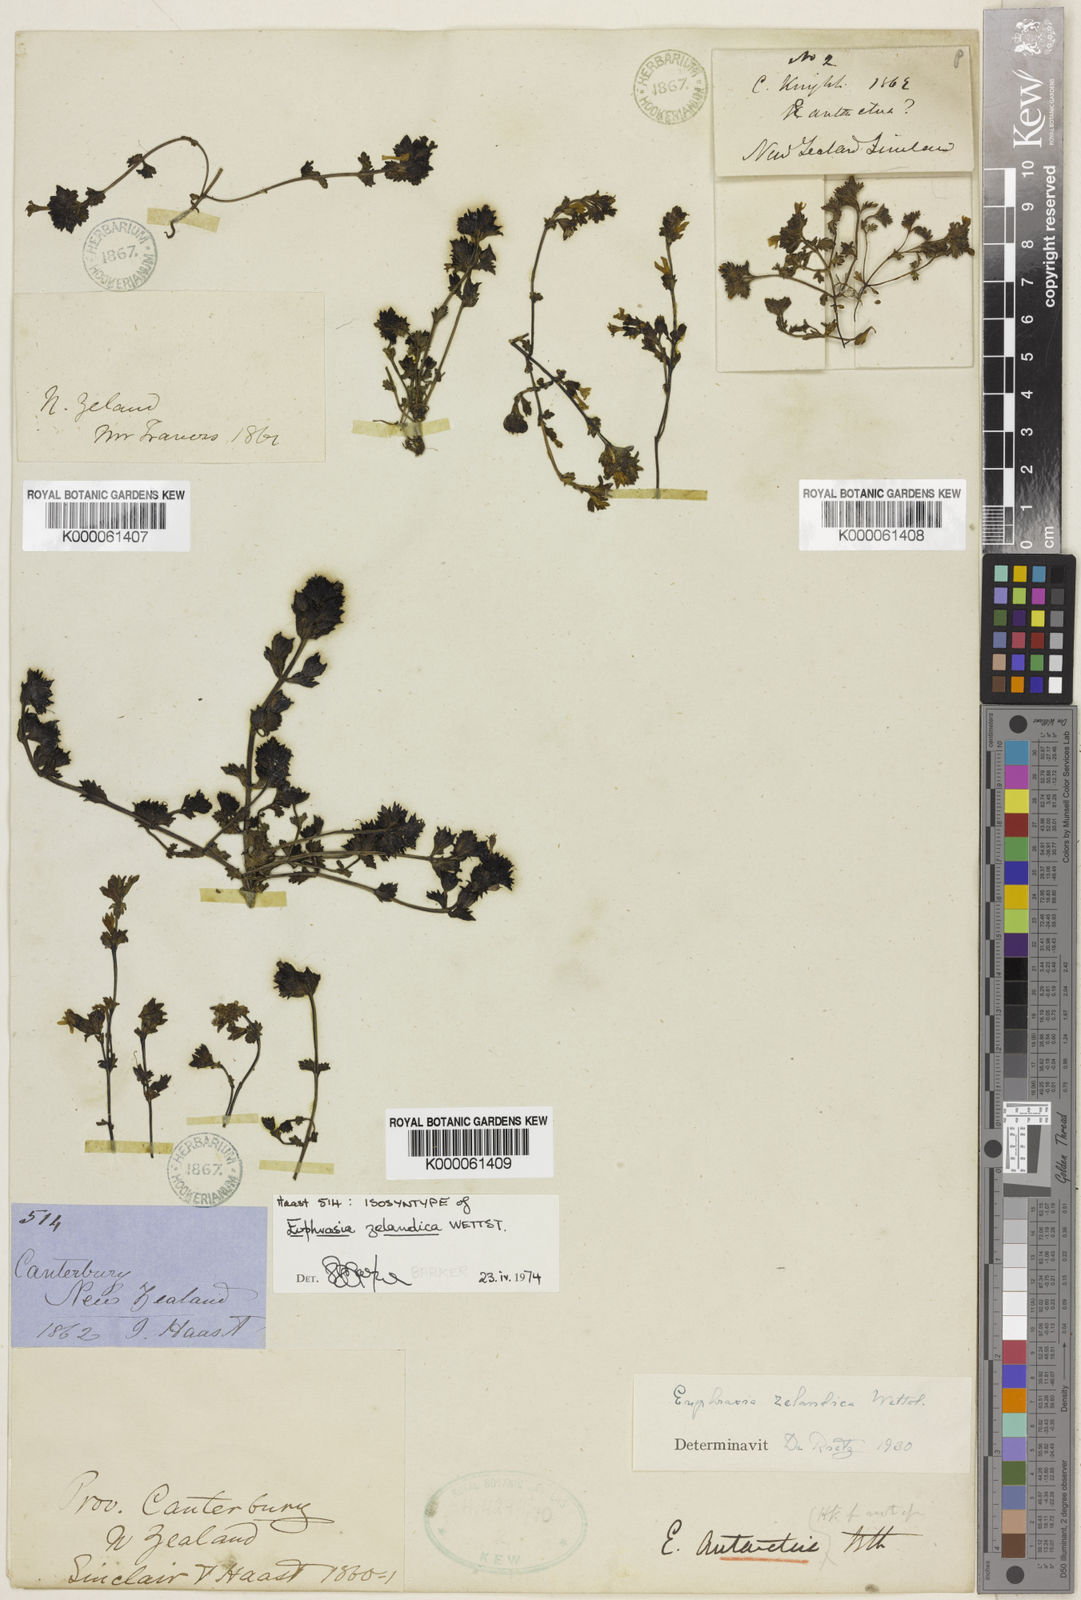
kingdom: Plantae
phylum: Tracheophyta
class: Magnoliopsida
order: Lamiales
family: Orobanchaceae
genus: Euphrasia
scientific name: Euphrasia zelandica
